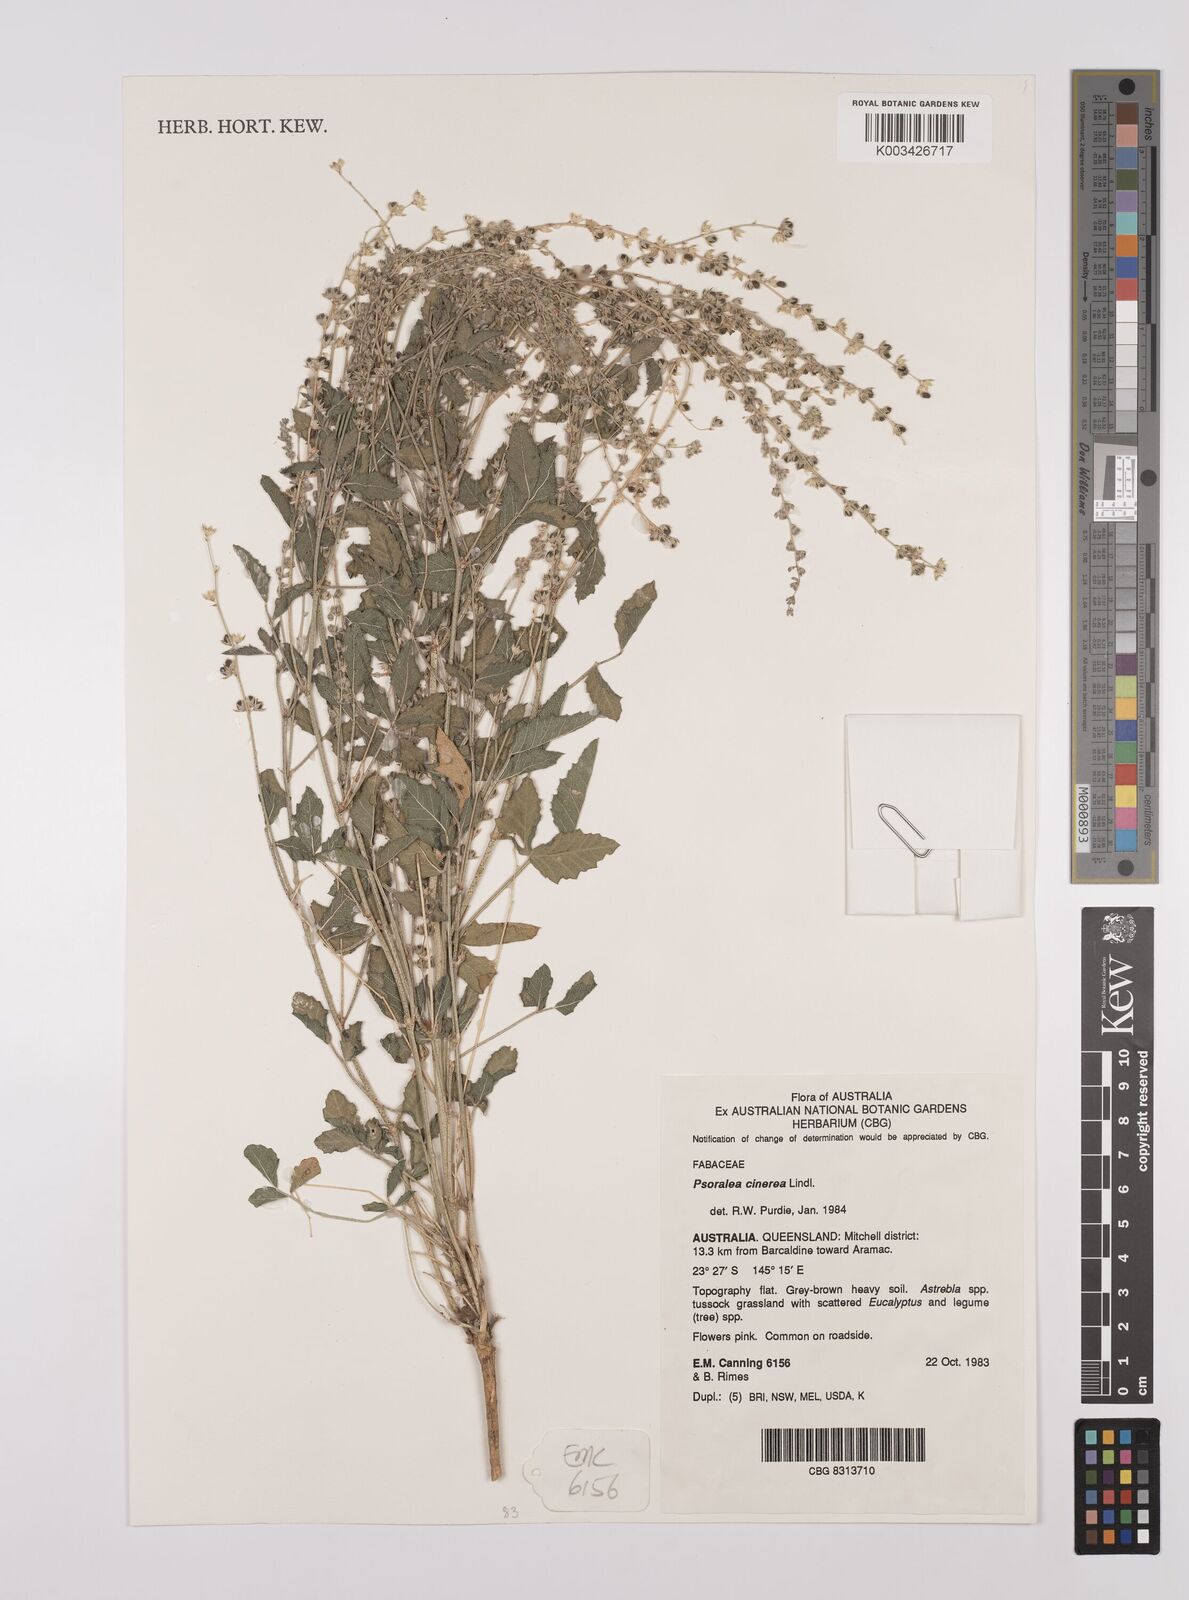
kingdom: Plantae
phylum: Tracheophyta
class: Magnoliopsida
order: Fabales
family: Fabaceae
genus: Cullen
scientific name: Cullen cinereum
